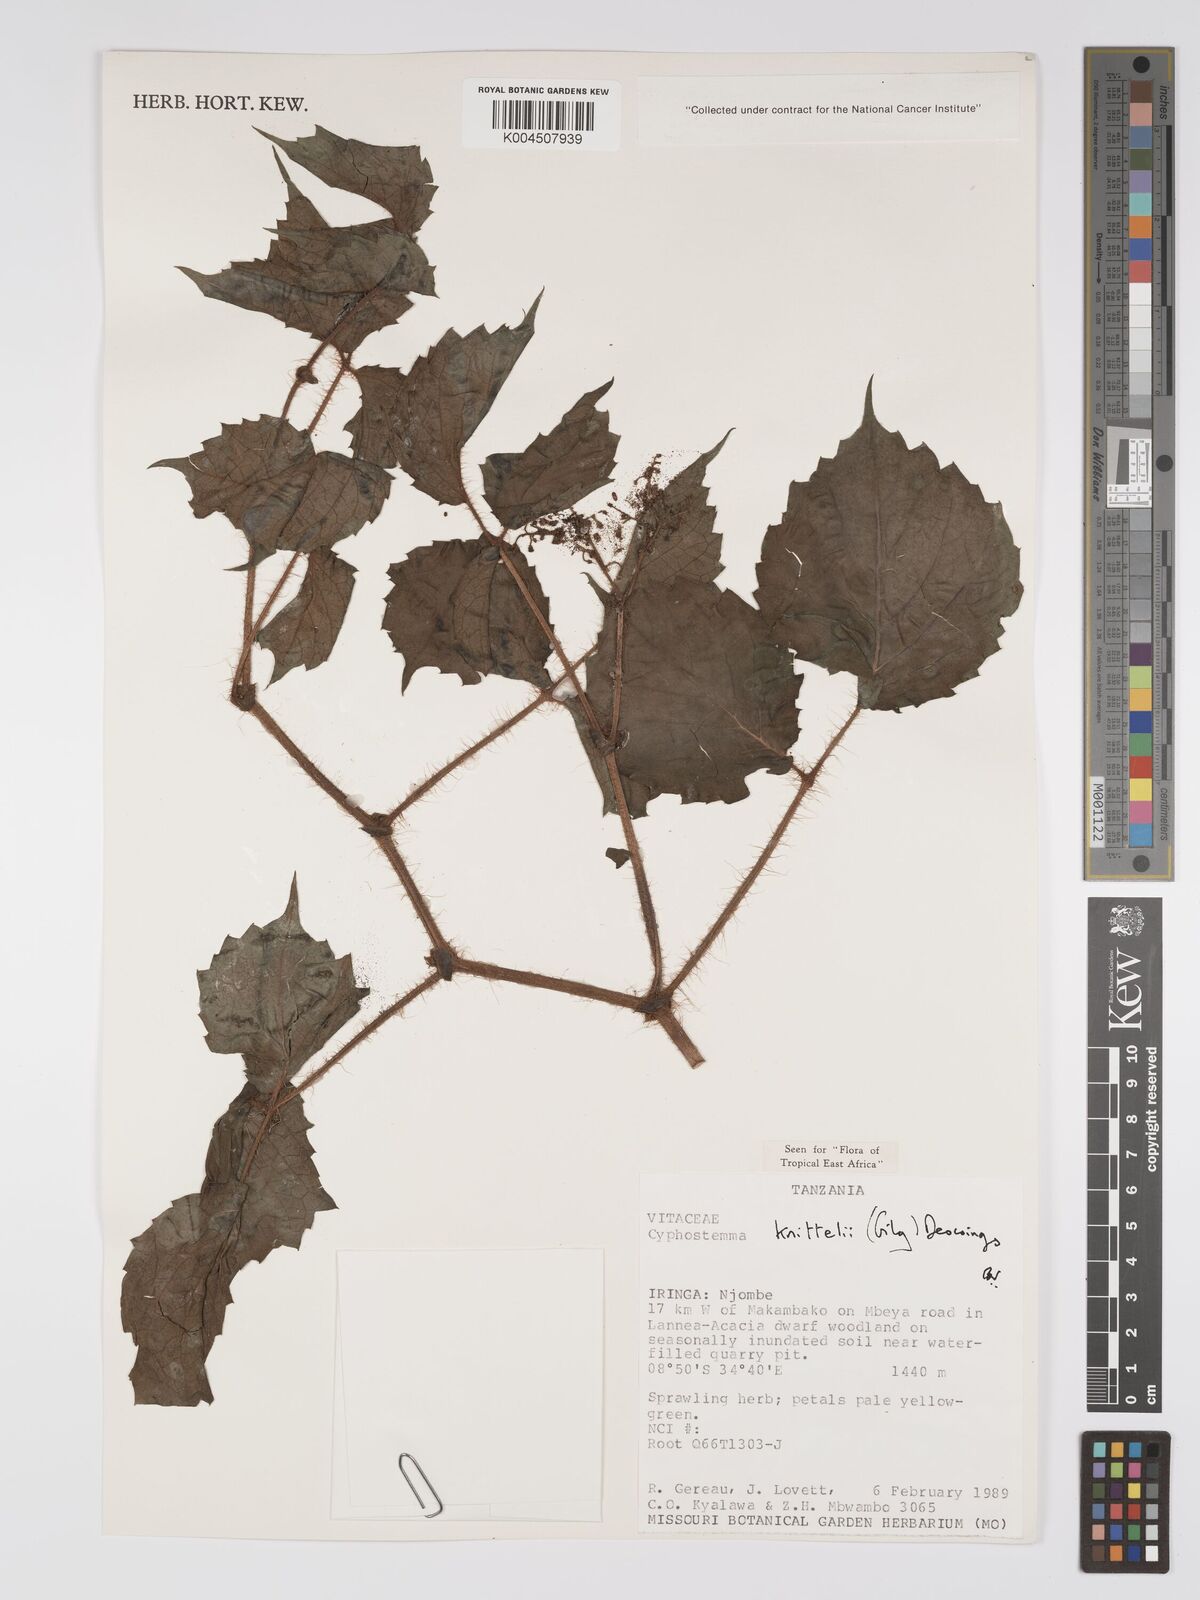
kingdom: Plantae
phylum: Tracheophyta
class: Magnoliopsida
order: Vitales
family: Vitaceae
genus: Cyphostemma
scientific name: Cyphostemma knittelii
